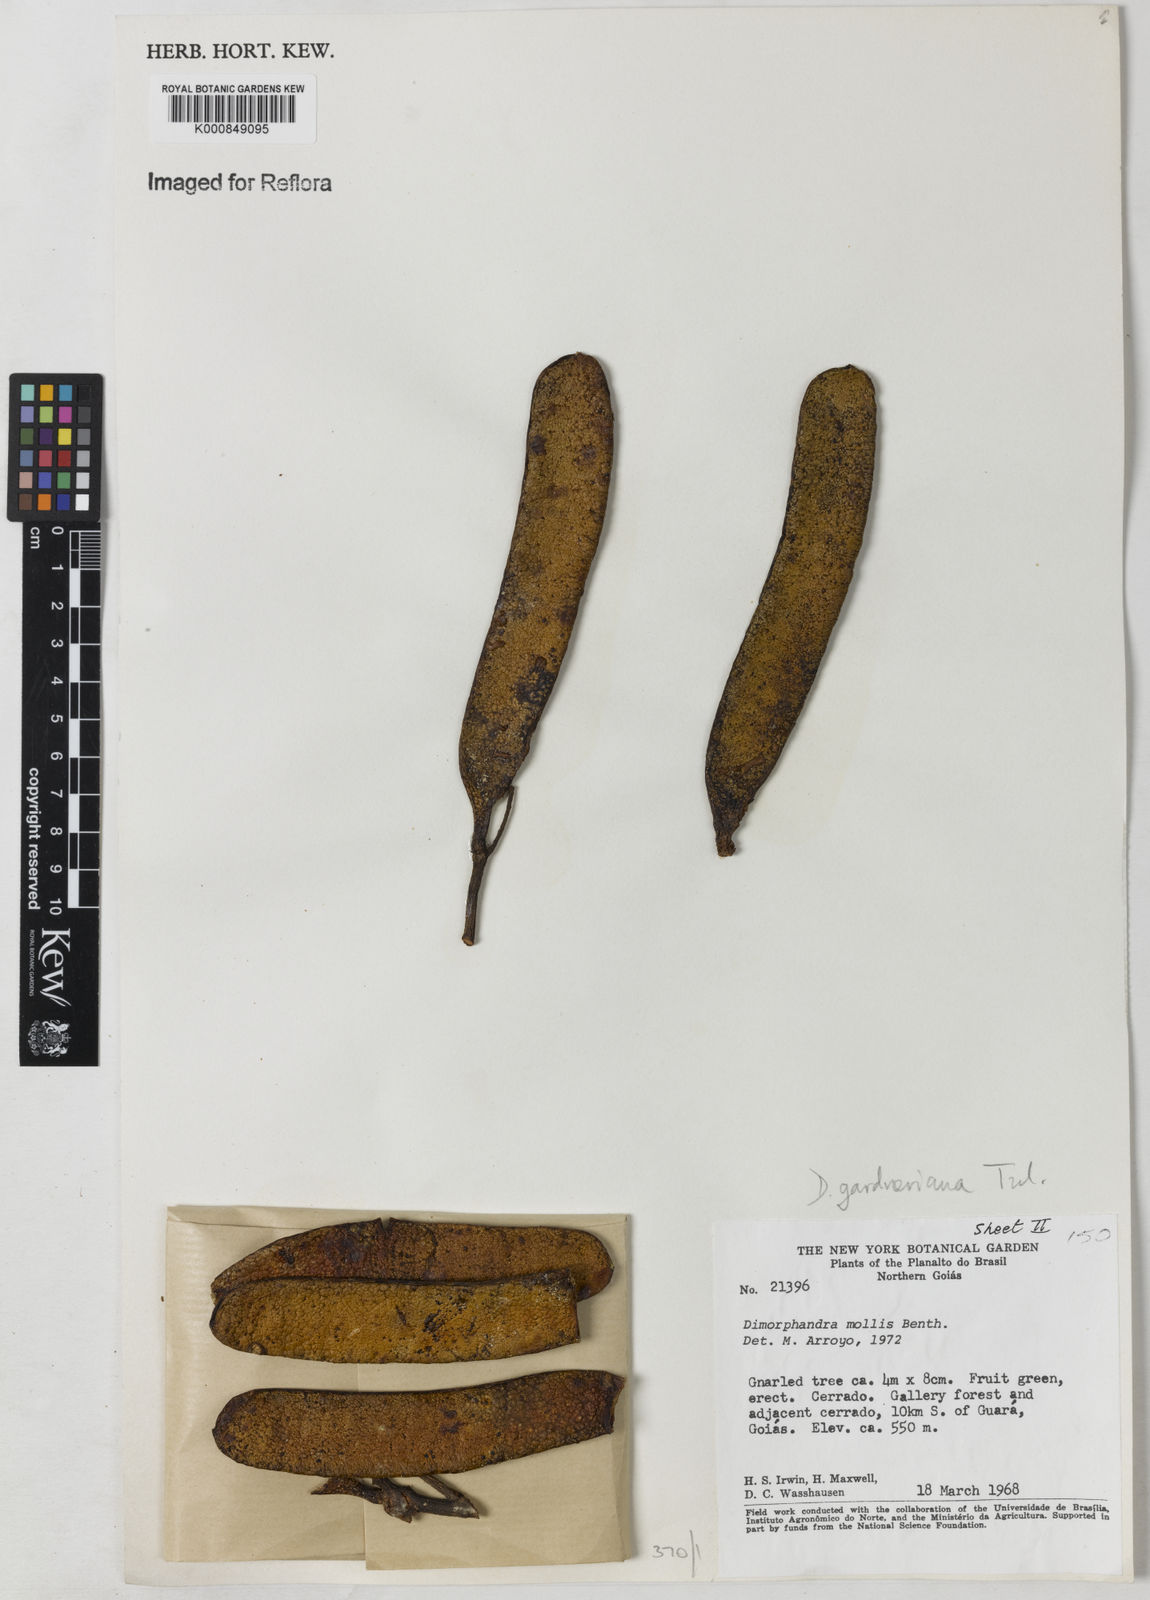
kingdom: Plantae
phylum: Tracheophyta
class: Magnoliopsida
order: Fabales
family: Fabaceae
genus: Dimorphandra
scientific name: Dimorphandra gardneriana
